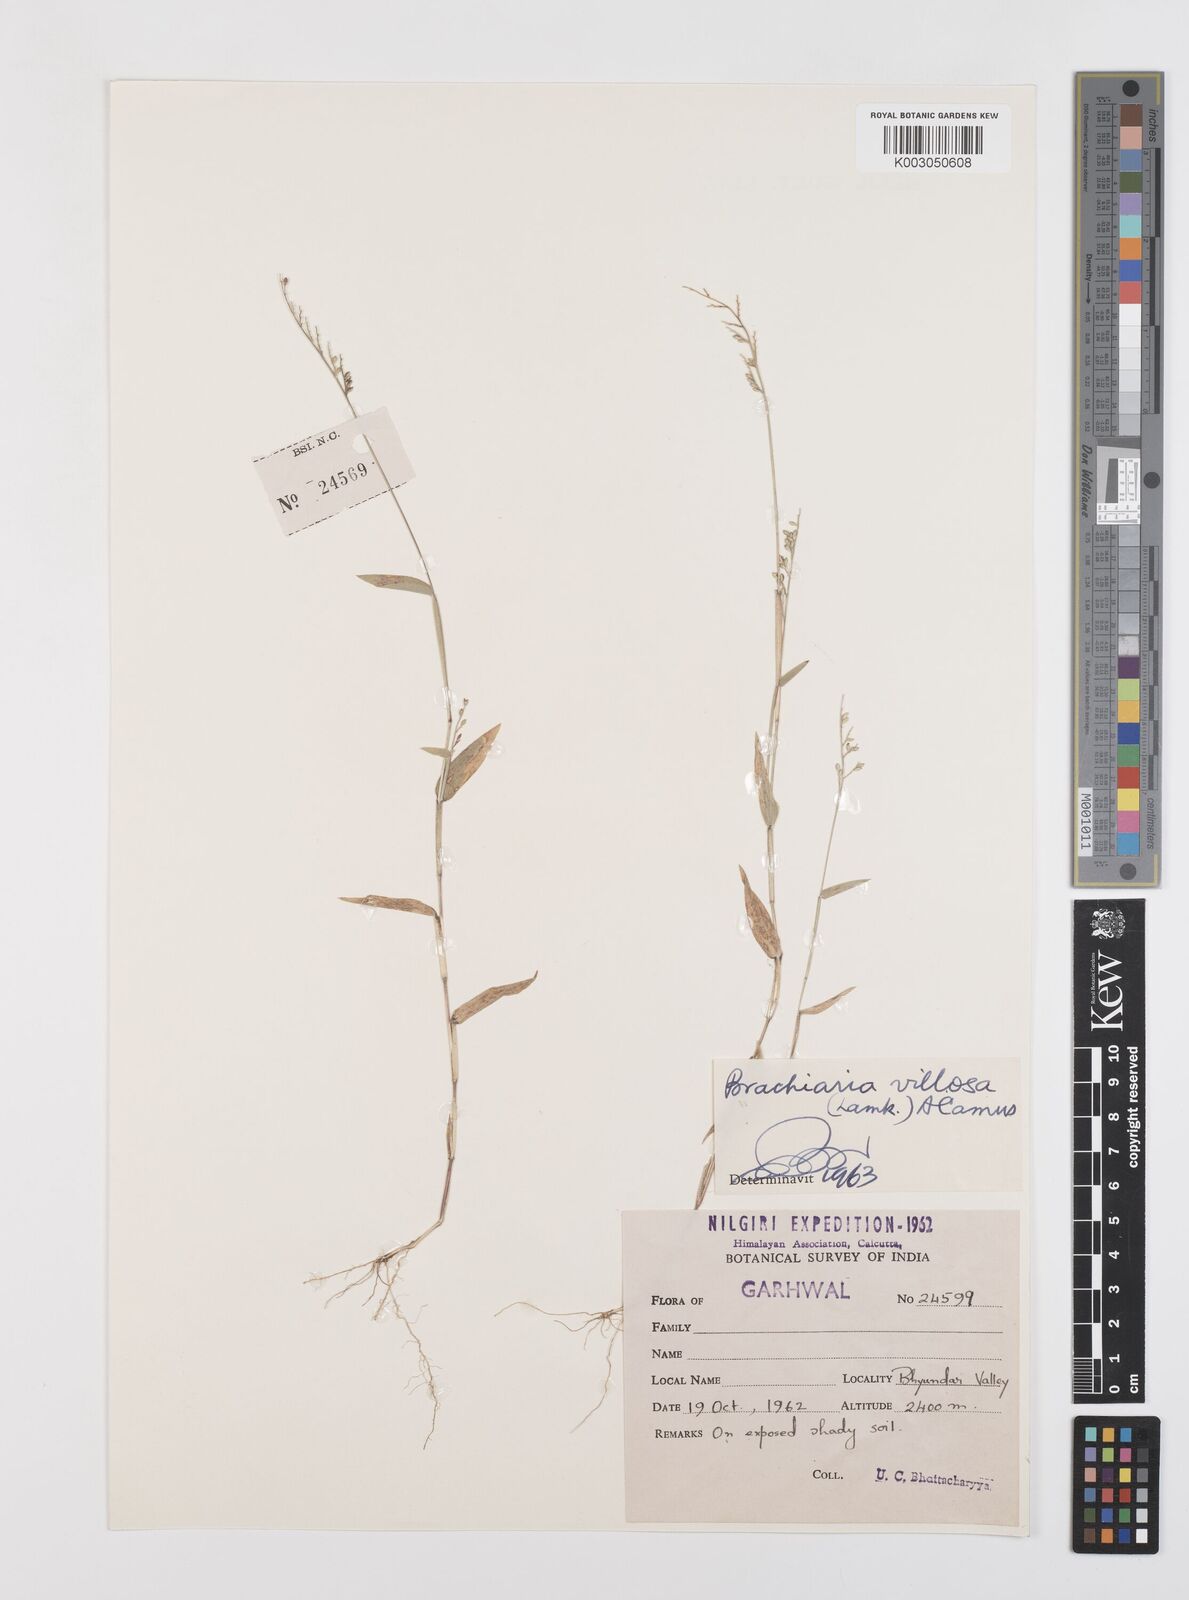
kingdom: Plantae
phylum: Tracheophyta
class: Liliopsida
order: Poales
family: Poaceae
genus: Urochloa
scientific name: Urochloa villosa
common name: Hairy signalgrass
